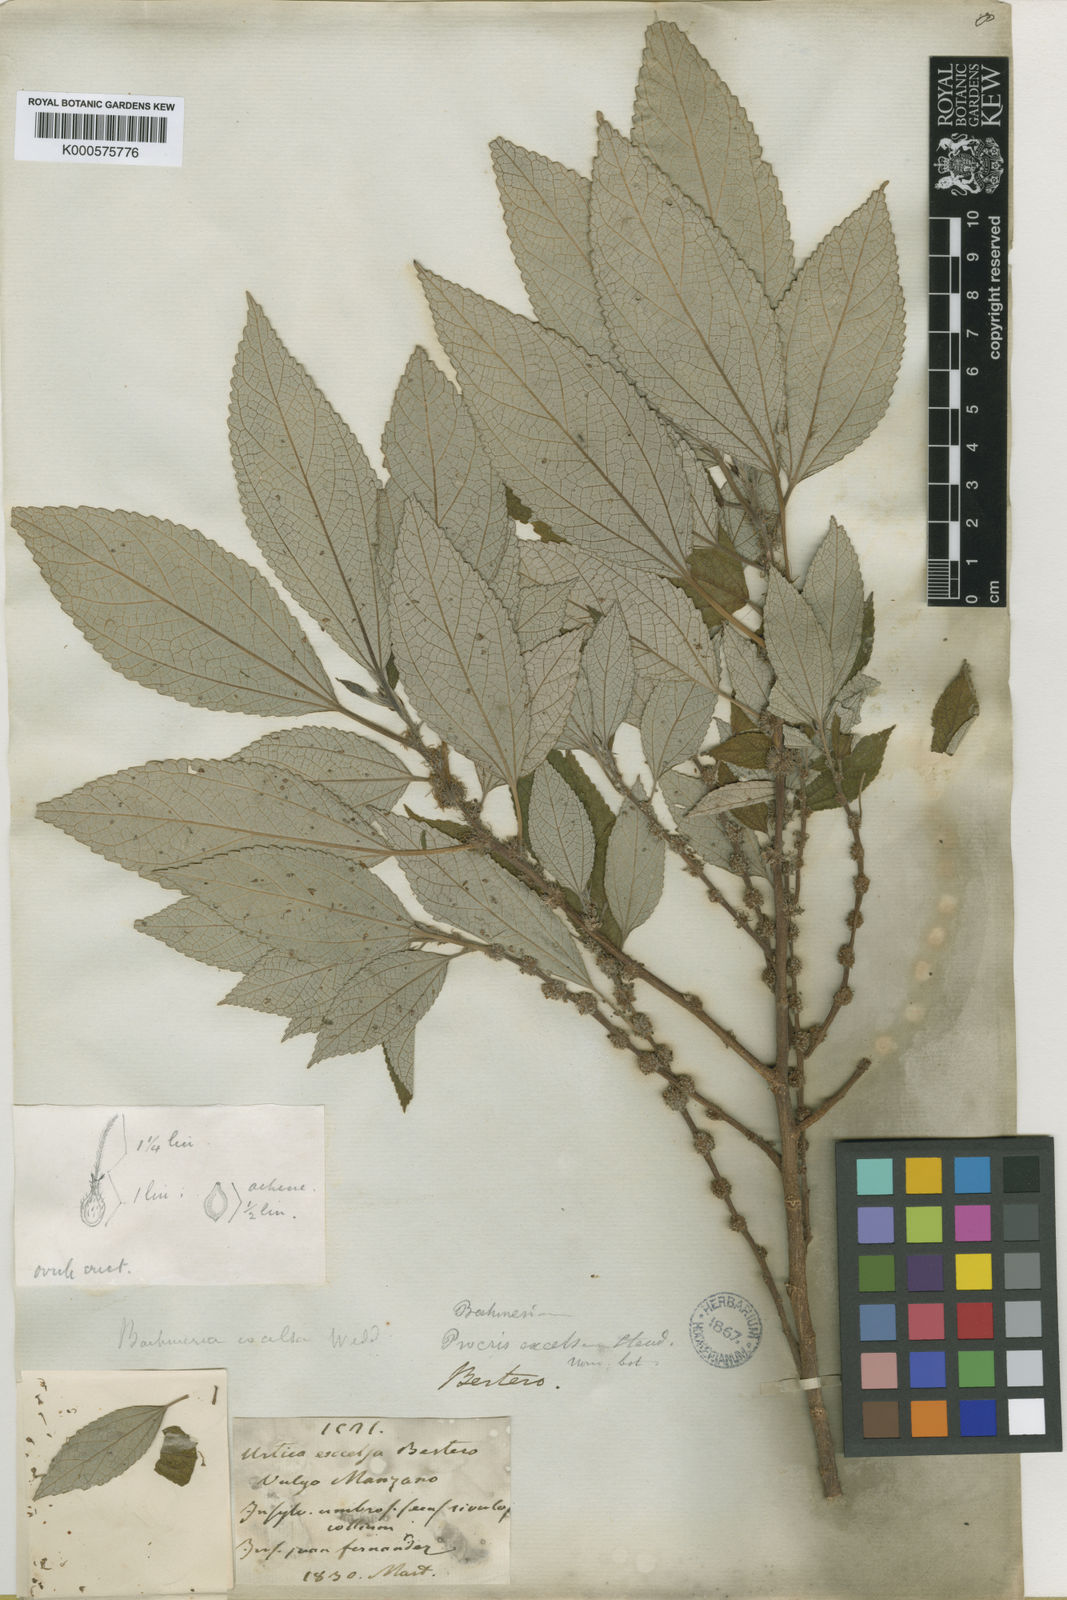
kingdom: Plantae
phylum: Tracheophyta
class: Magnoliopsida
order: Rosales
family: Urticaceae
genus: Boehmeria
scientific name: Boehmeria excelsa
